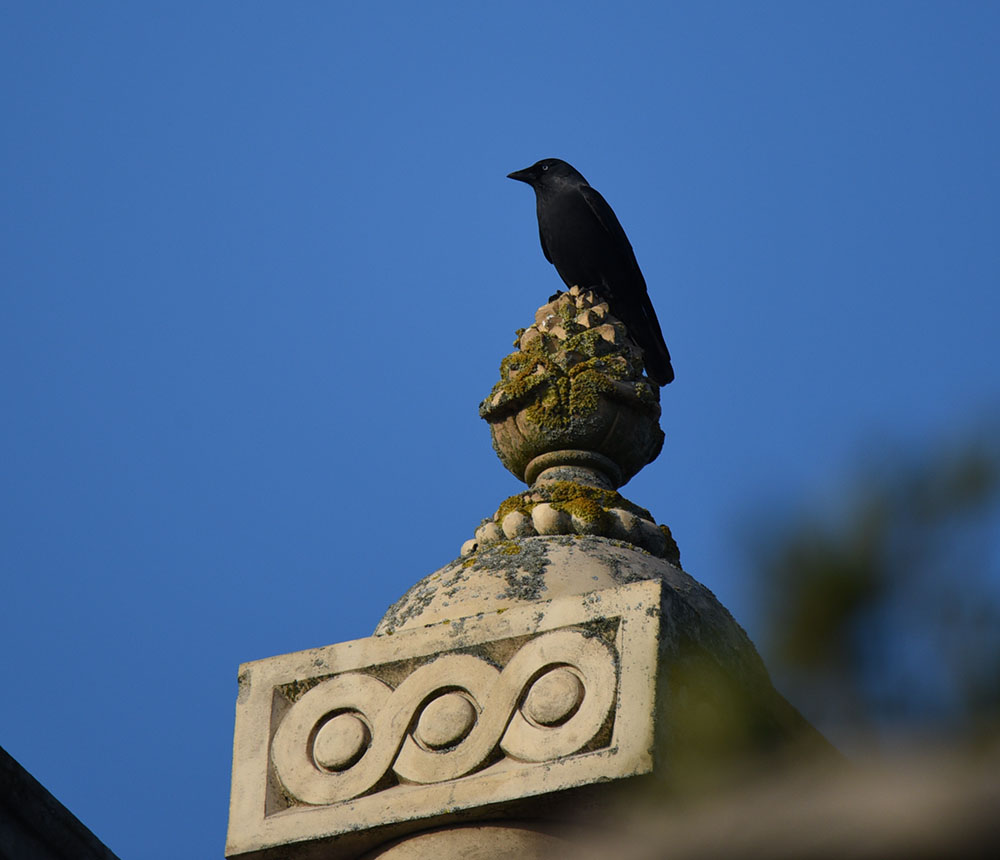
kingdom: Animalia
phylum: Chordata
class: Aves
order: Passeriformes
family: Corvidae
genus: Coloeus
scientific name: Coloeus monedula
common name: Western jackdaw
